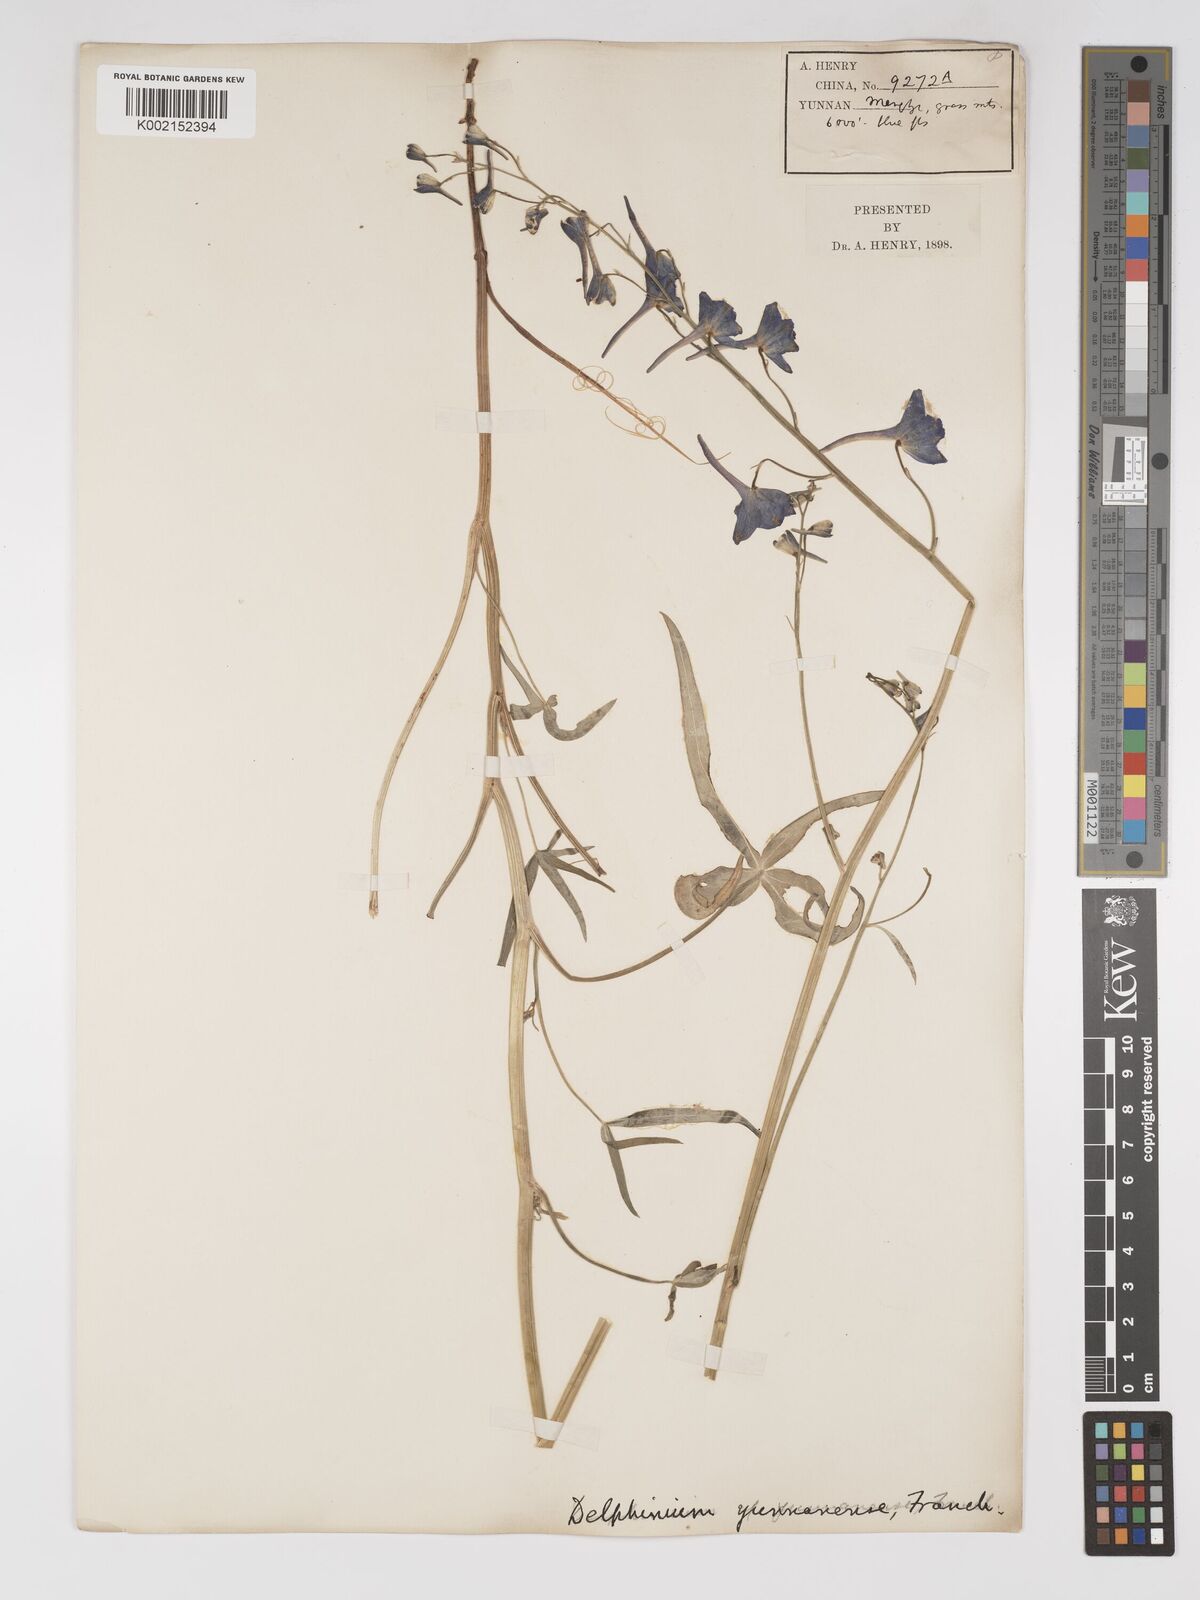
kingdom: Plantae
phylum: Tracheophyta
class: Magnoliopsida
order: Ranunculales
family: Ranunculaceae
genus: Delphinium
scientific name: Delphinium yunnanense
